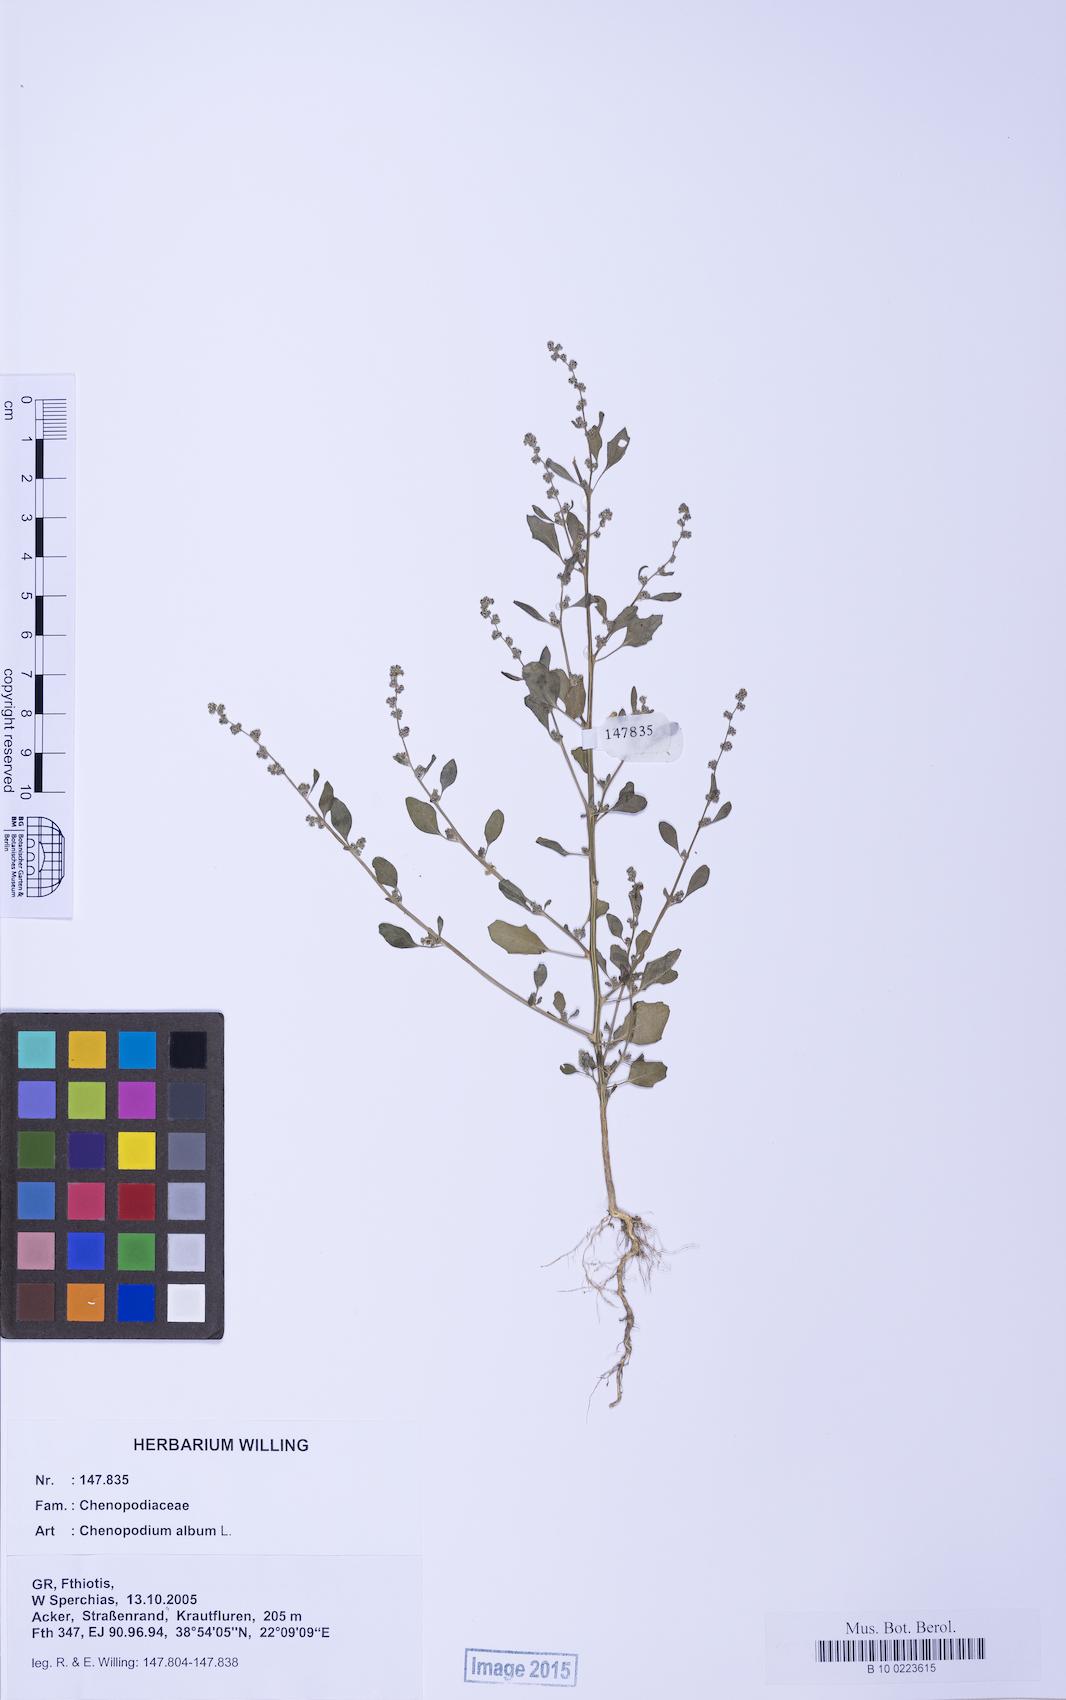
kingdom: Plantae
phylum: Tracheophyta
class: Magnoliopsida
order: Caryophyllales
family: Amaranthaceae
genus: Chenopodium
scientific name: Chenopodium striatiforme
